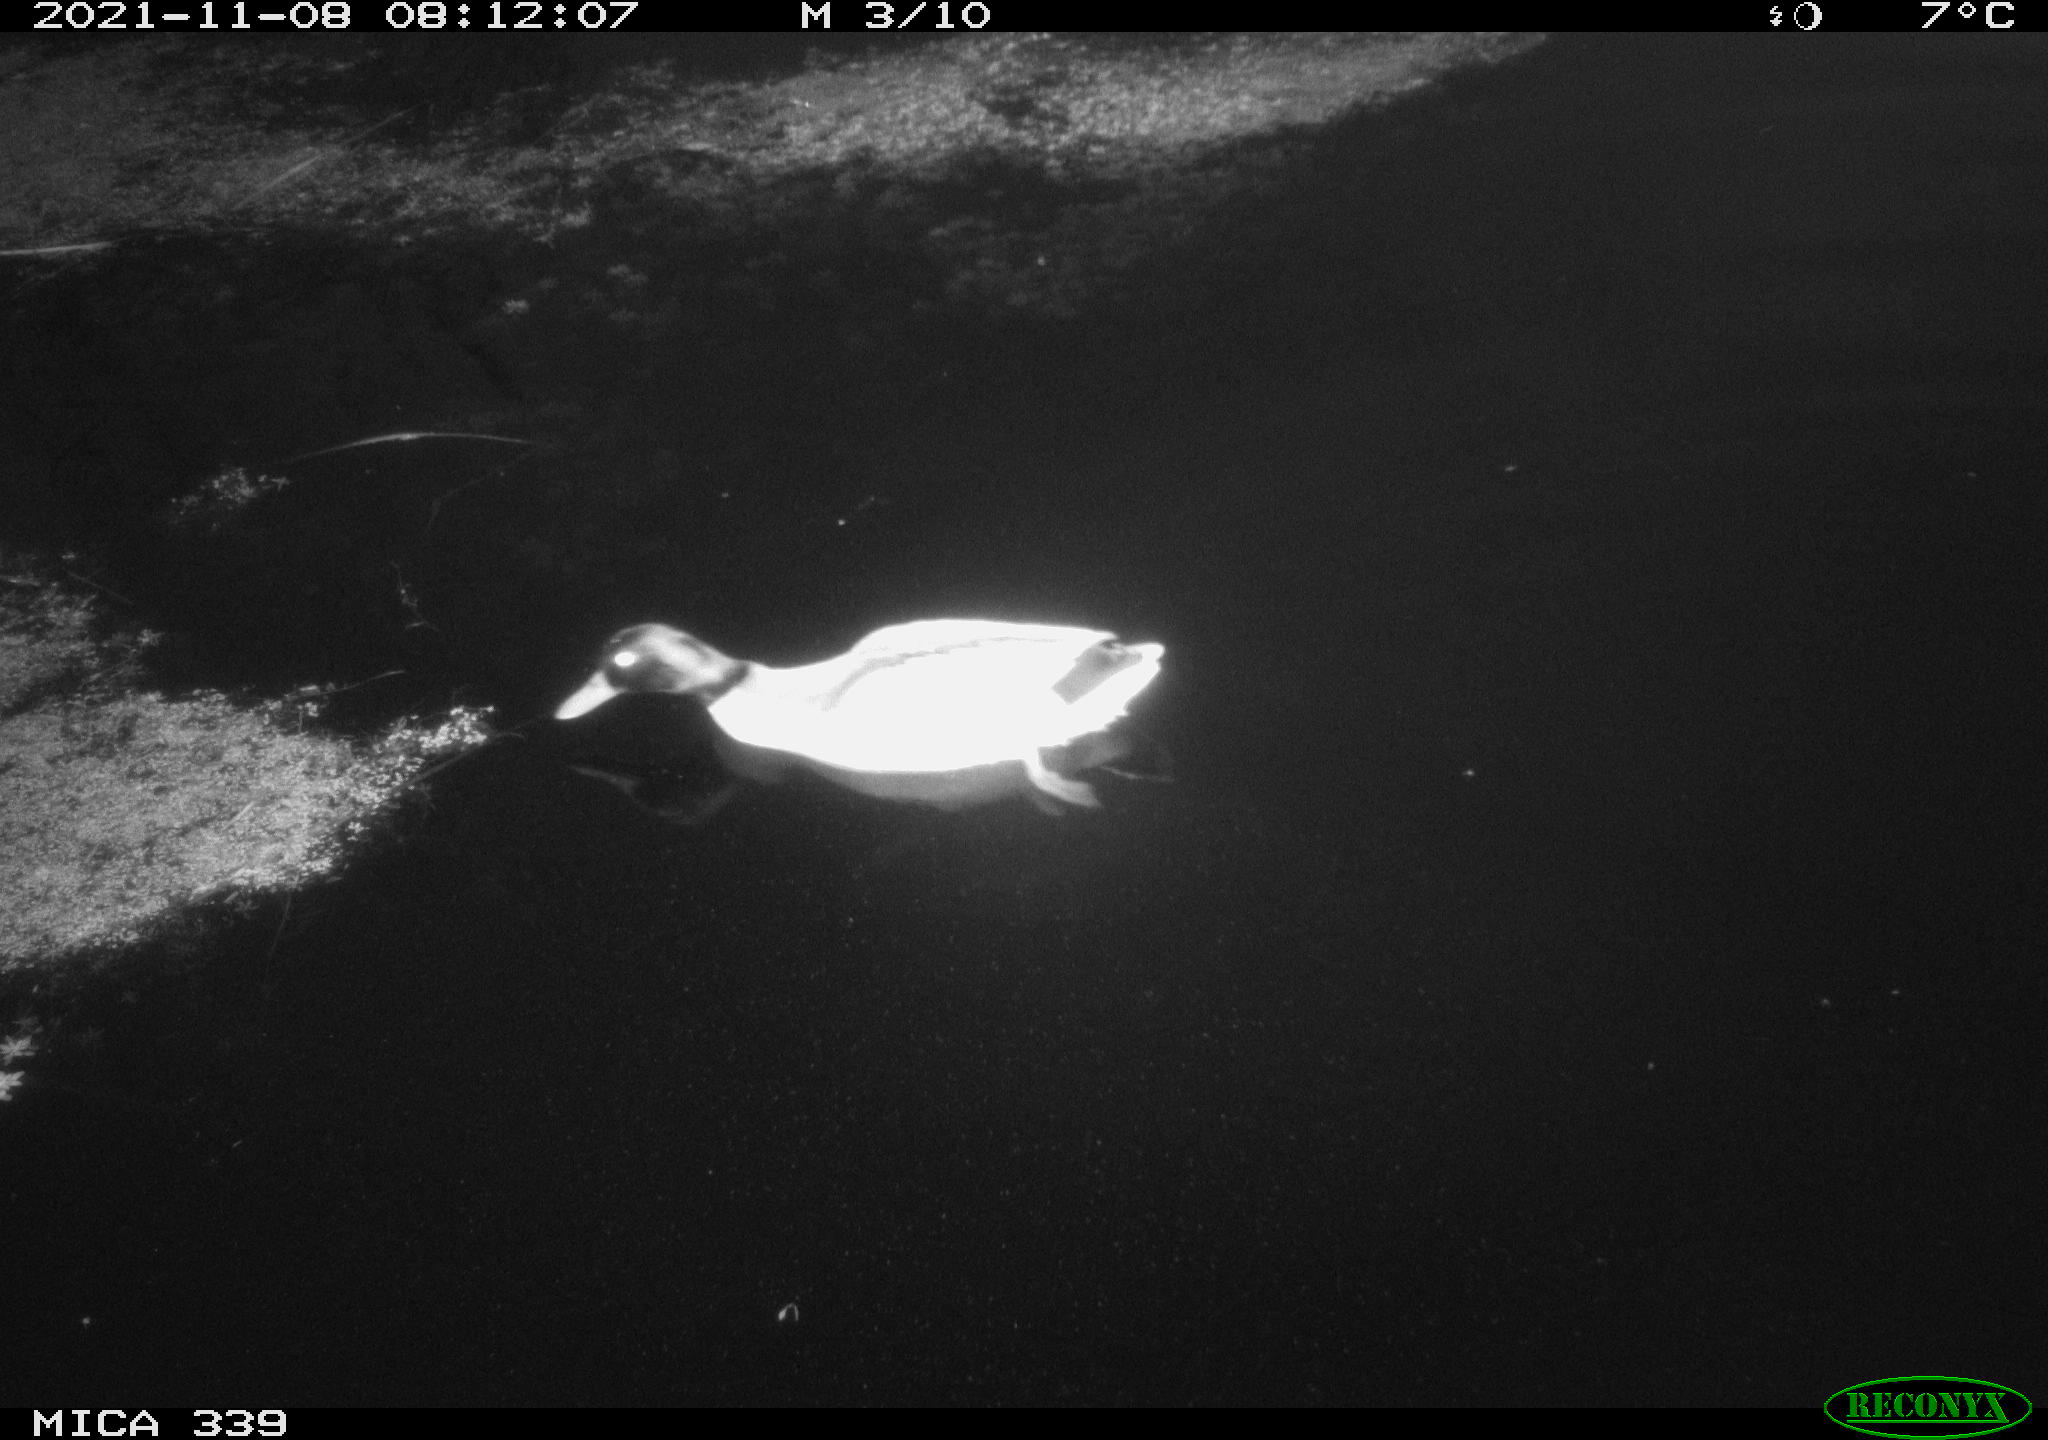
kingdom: Animalia
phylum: Chordata
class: Aves
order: Anseriformes
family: Anatidae
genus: Anas
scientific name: Anas platyrhynchos
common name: Mallard
